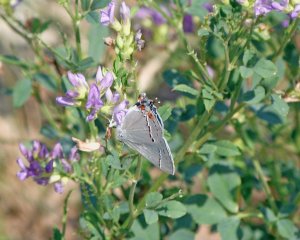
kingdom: Animalia
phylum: Arthropoda
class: Insecta
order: Lepidoptera
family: Lycaenidae
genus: Strymon
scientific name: Strymon melinus
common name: Gray Hairstreak
